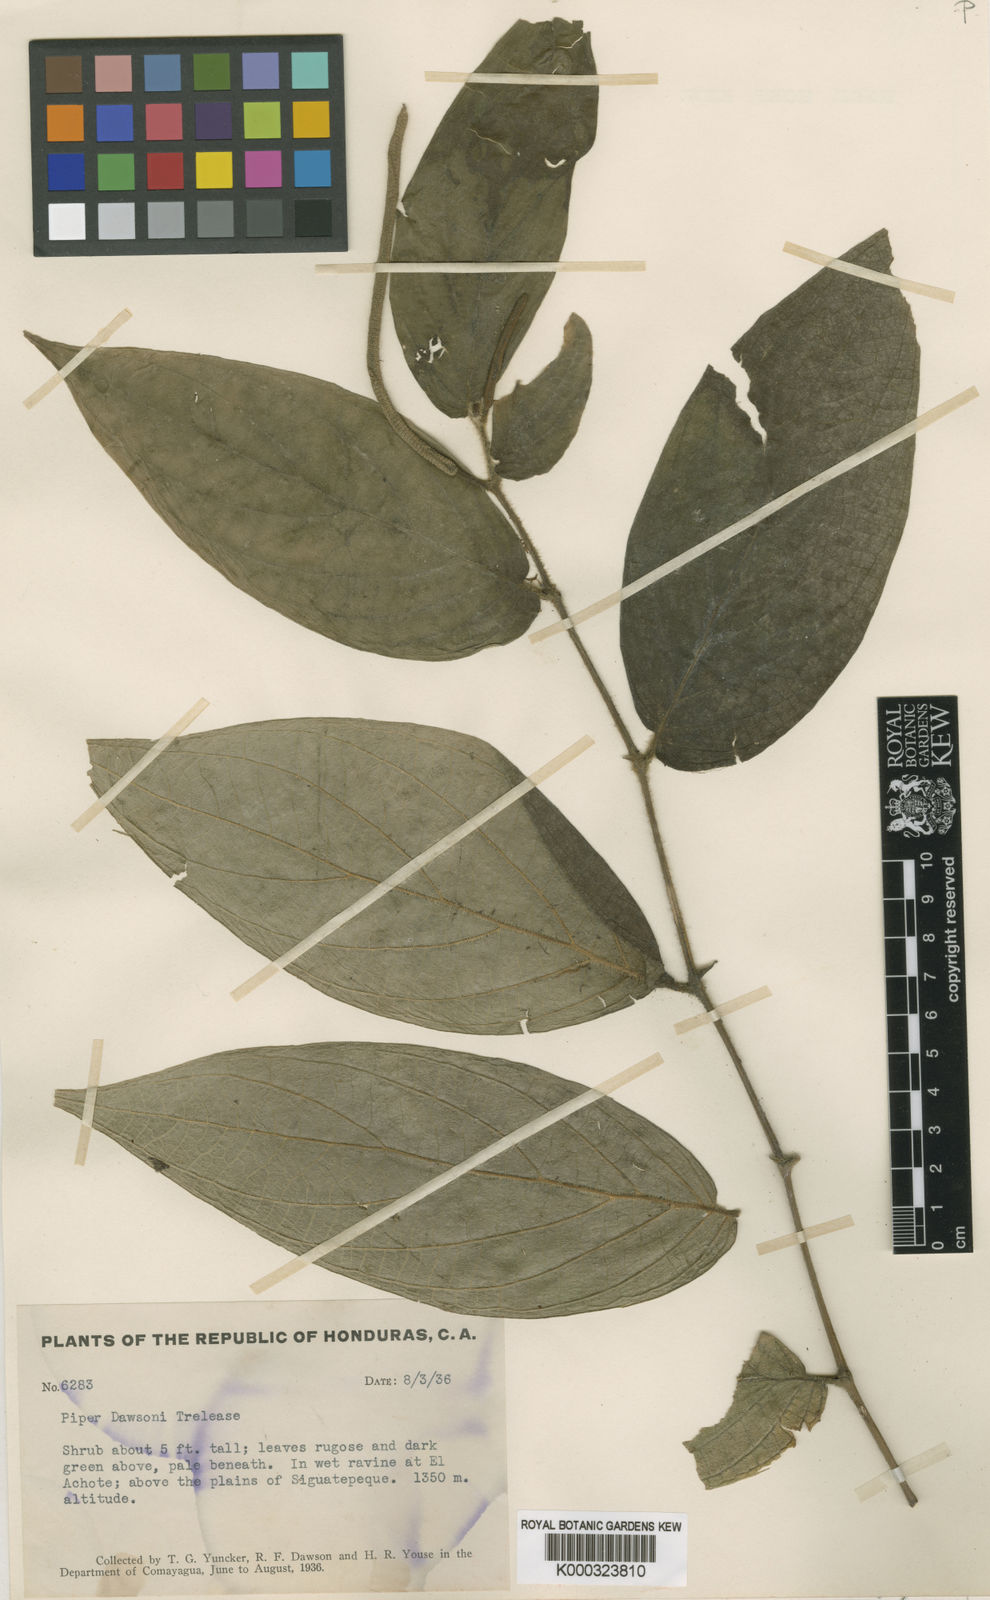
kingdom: Plantae
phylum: Tracheophyta
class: Magnoliopsida
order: Piperales
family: Piperaceae
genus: Piper
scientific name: Piper villiramulum
